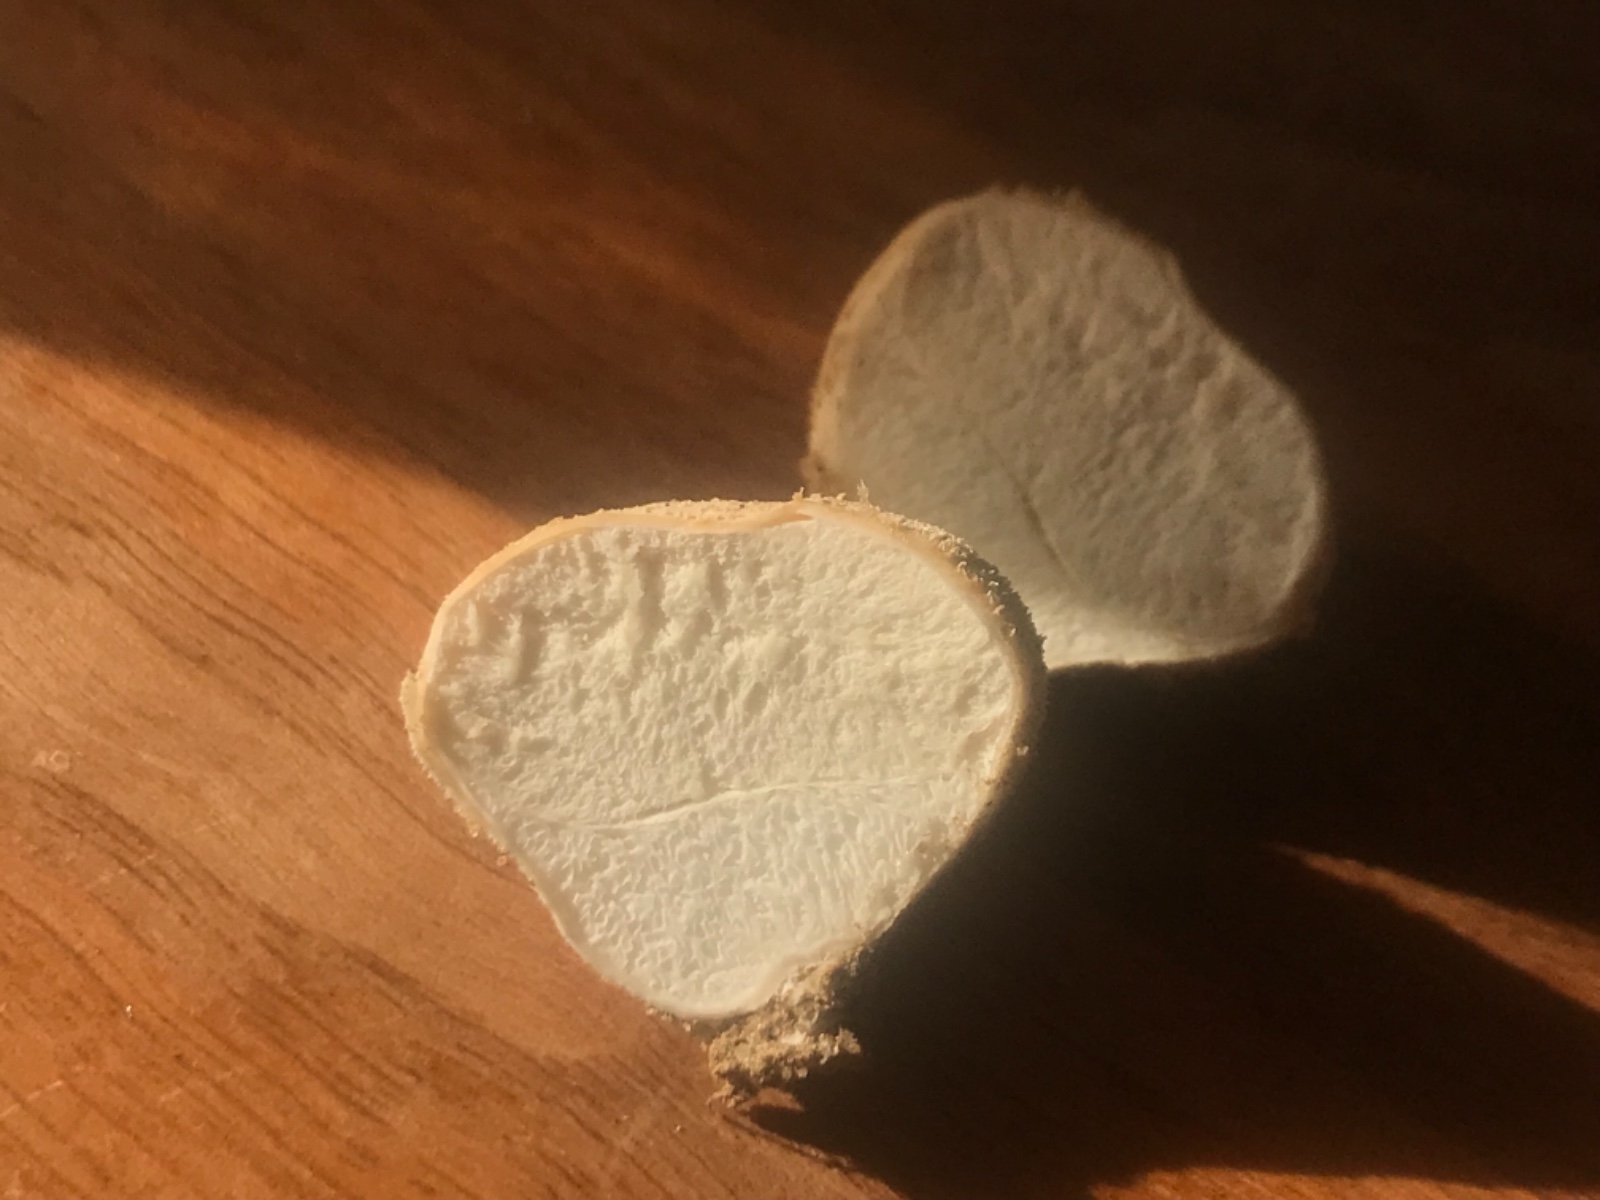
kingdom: Fungi
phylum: Basidiomycota
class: Agaricomycetes
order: Agaricales
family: Lycoperdaceae
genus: Lycoperdon
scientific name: Lycoperdon pratense
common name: flad støvbold
